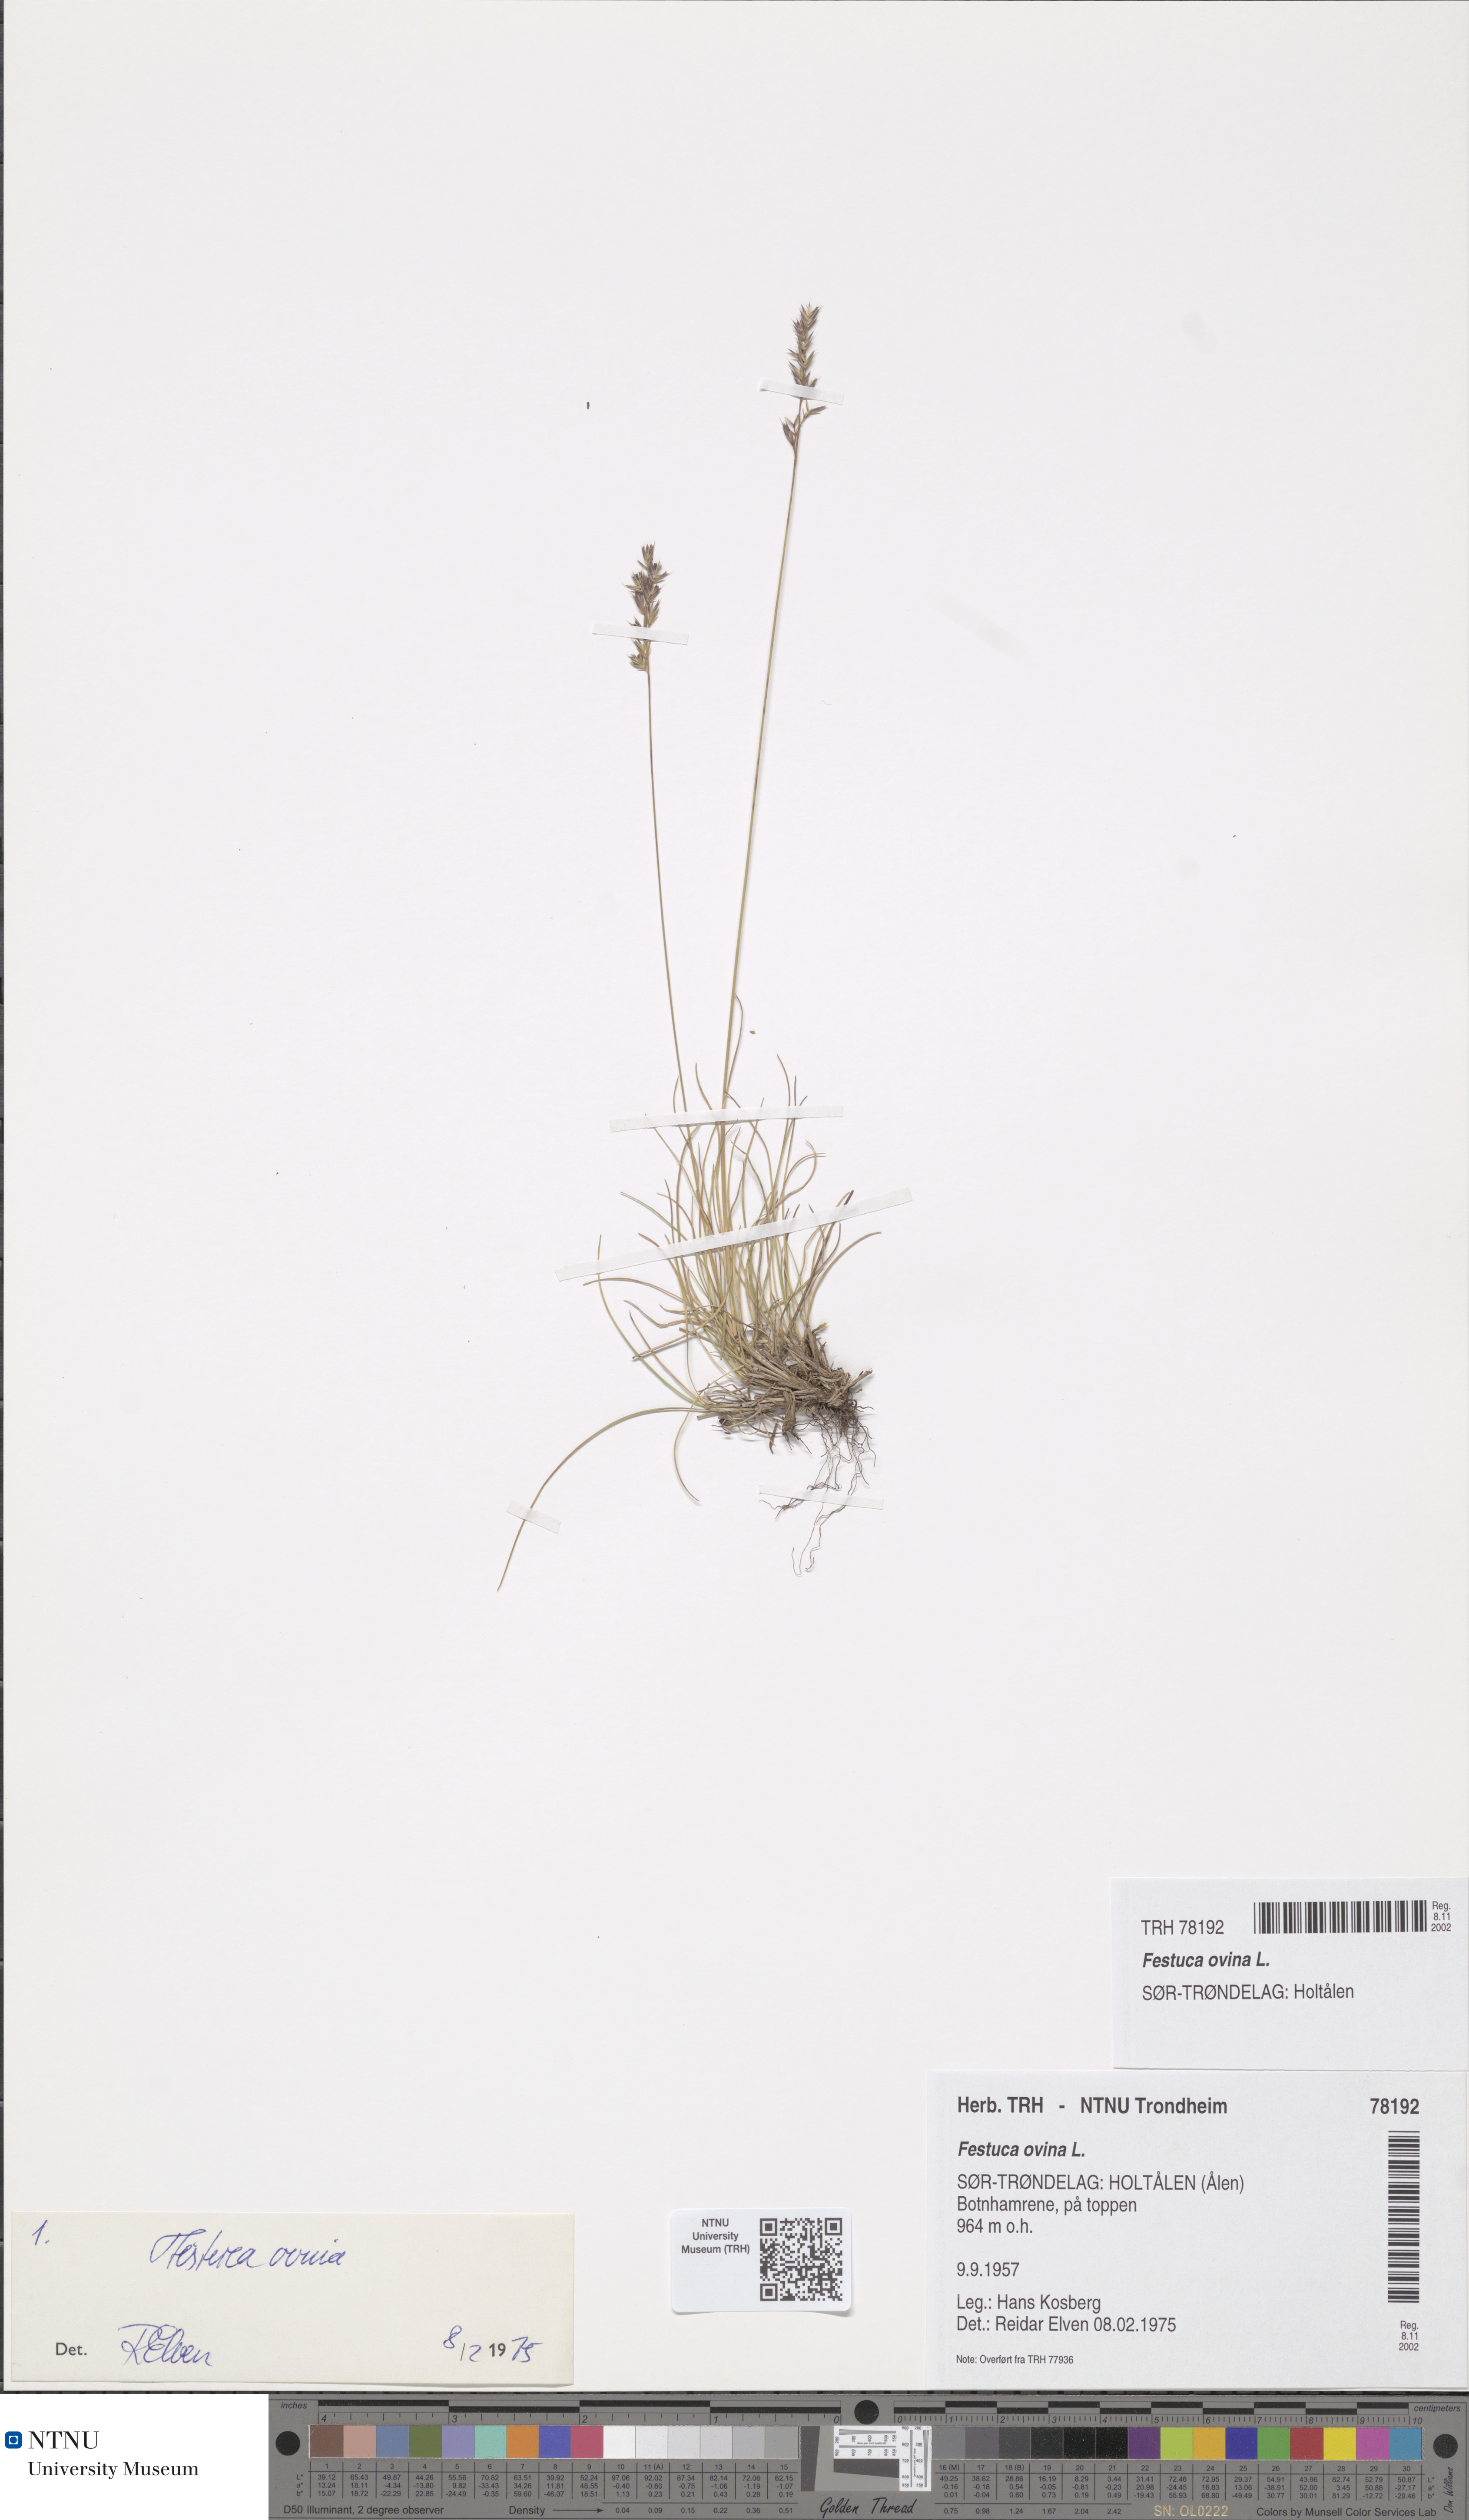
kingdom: Plantae
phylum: Tracheophyta
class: Liliopsida
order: Poales
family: Poaceae
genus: Festuca
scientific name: Festuca ovina
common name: Sheep fescue
